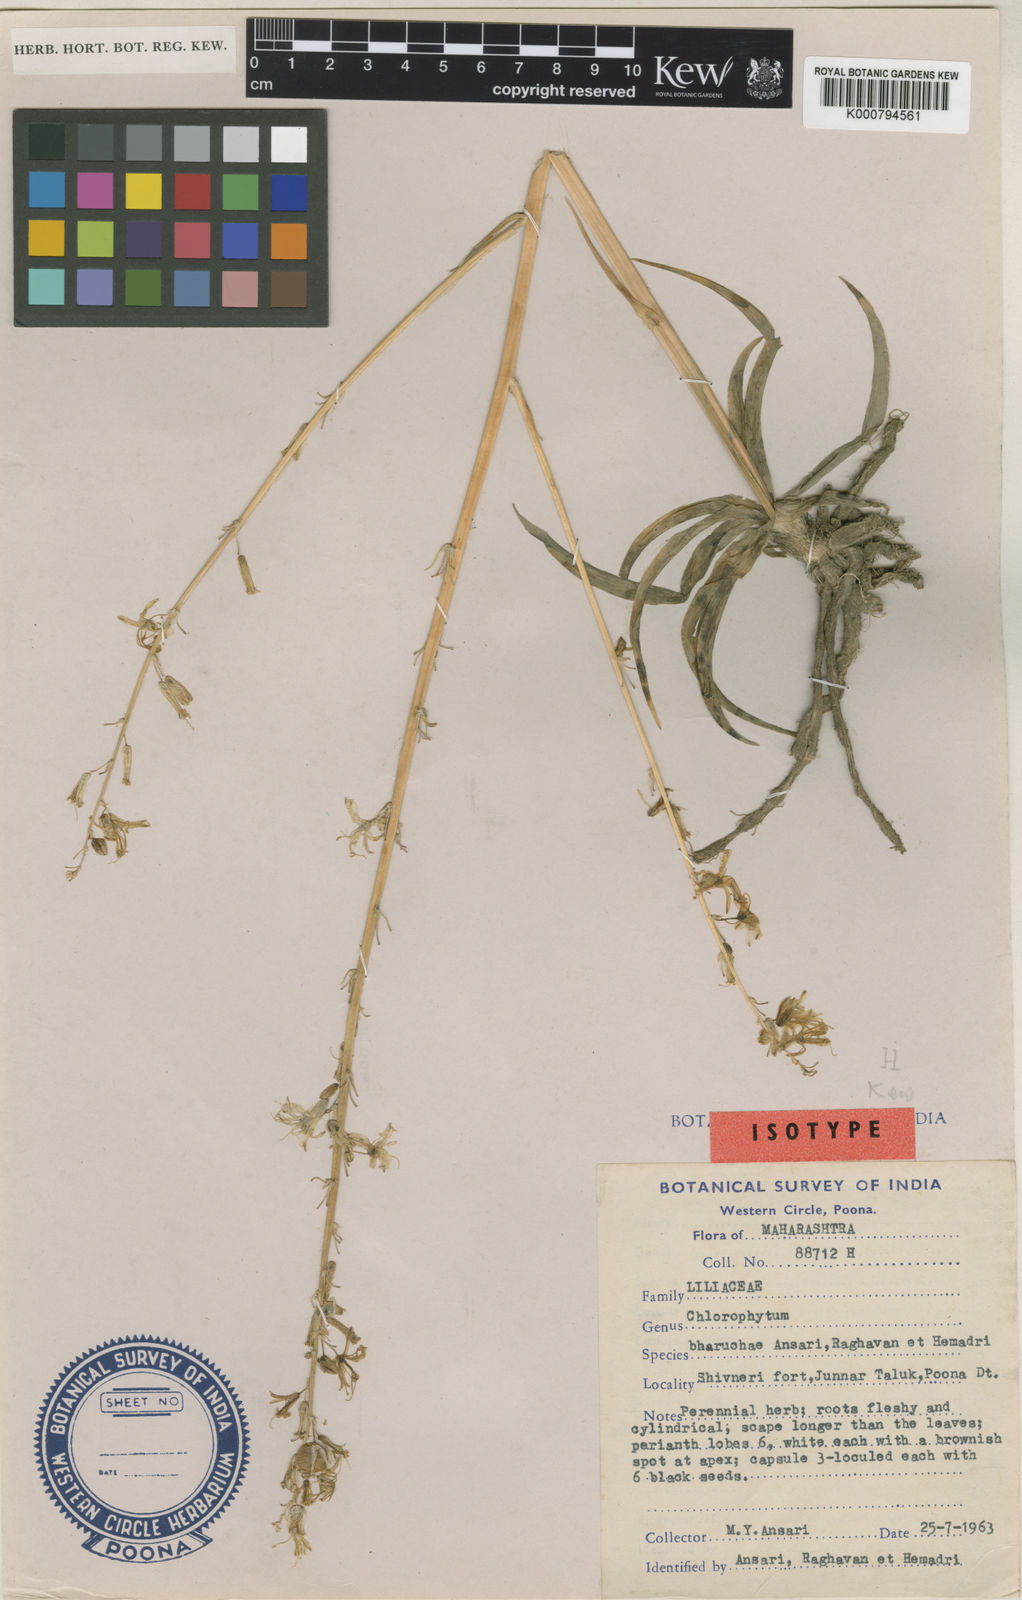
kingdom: Plantae
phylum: Tracheophyta
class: Liliopsida
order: Asparagales
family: Asparagaceae
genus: Chlorophytum
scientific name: Chlorophytum bharuchae
